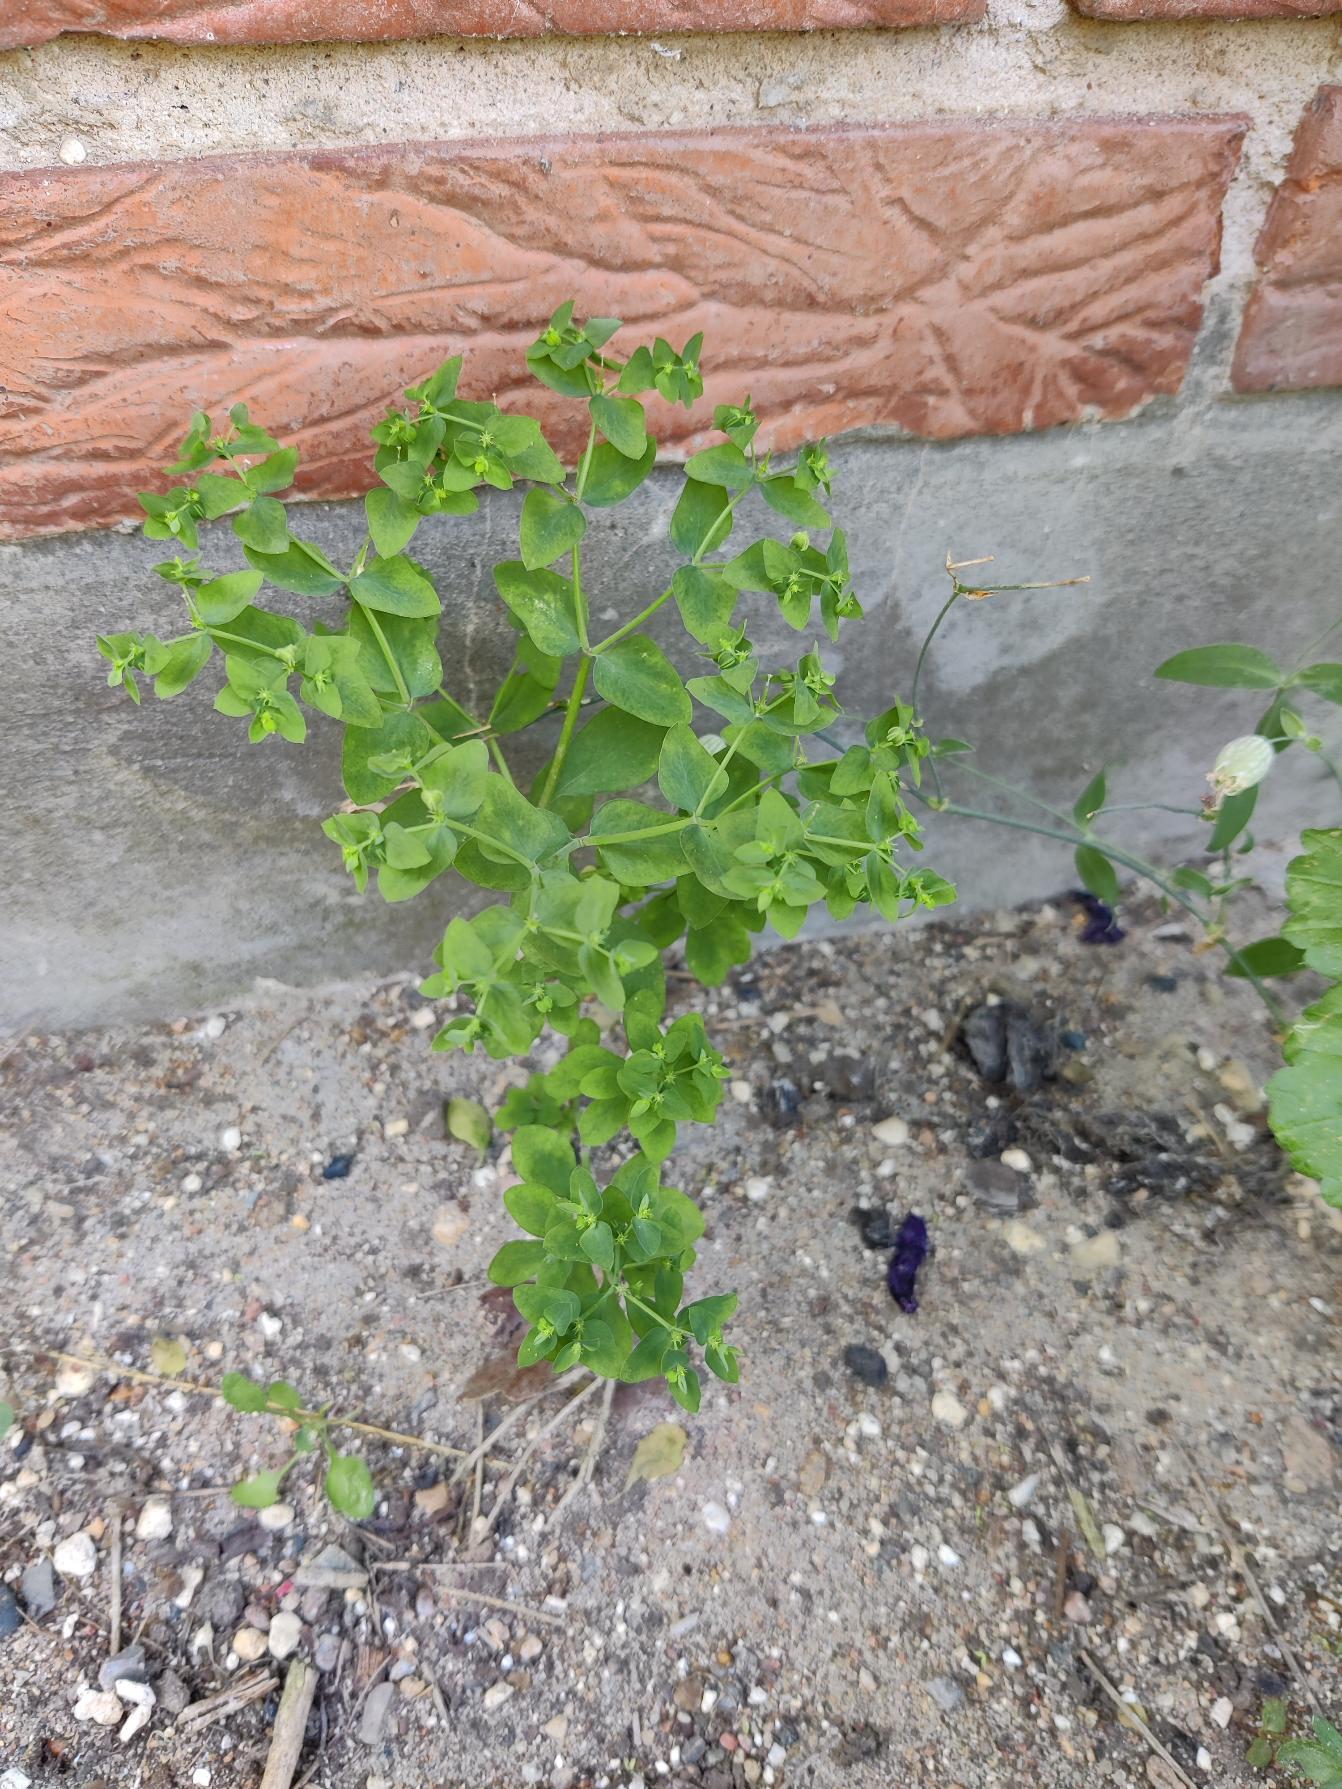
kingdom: Plantae
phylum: Tracheophyta
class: Magnoliopsida
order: Malpighiales
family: Euphorbiaceae
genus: Euphorbia
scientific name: Euphorbia peplus
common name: Gaffel-vortemælk
